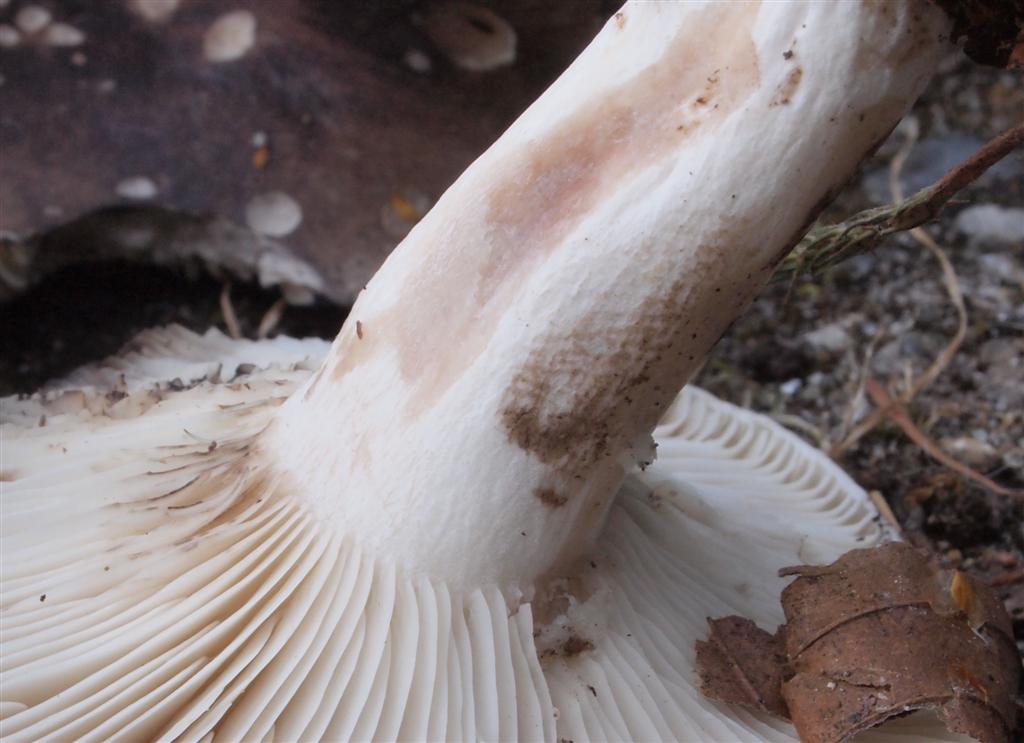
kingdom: Fungi
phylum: Basidiomycota
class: Agaricomycetes
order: Russulales
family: Russulaceae
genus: Russula
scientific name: Russula anthracina
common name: kul-skørhat
